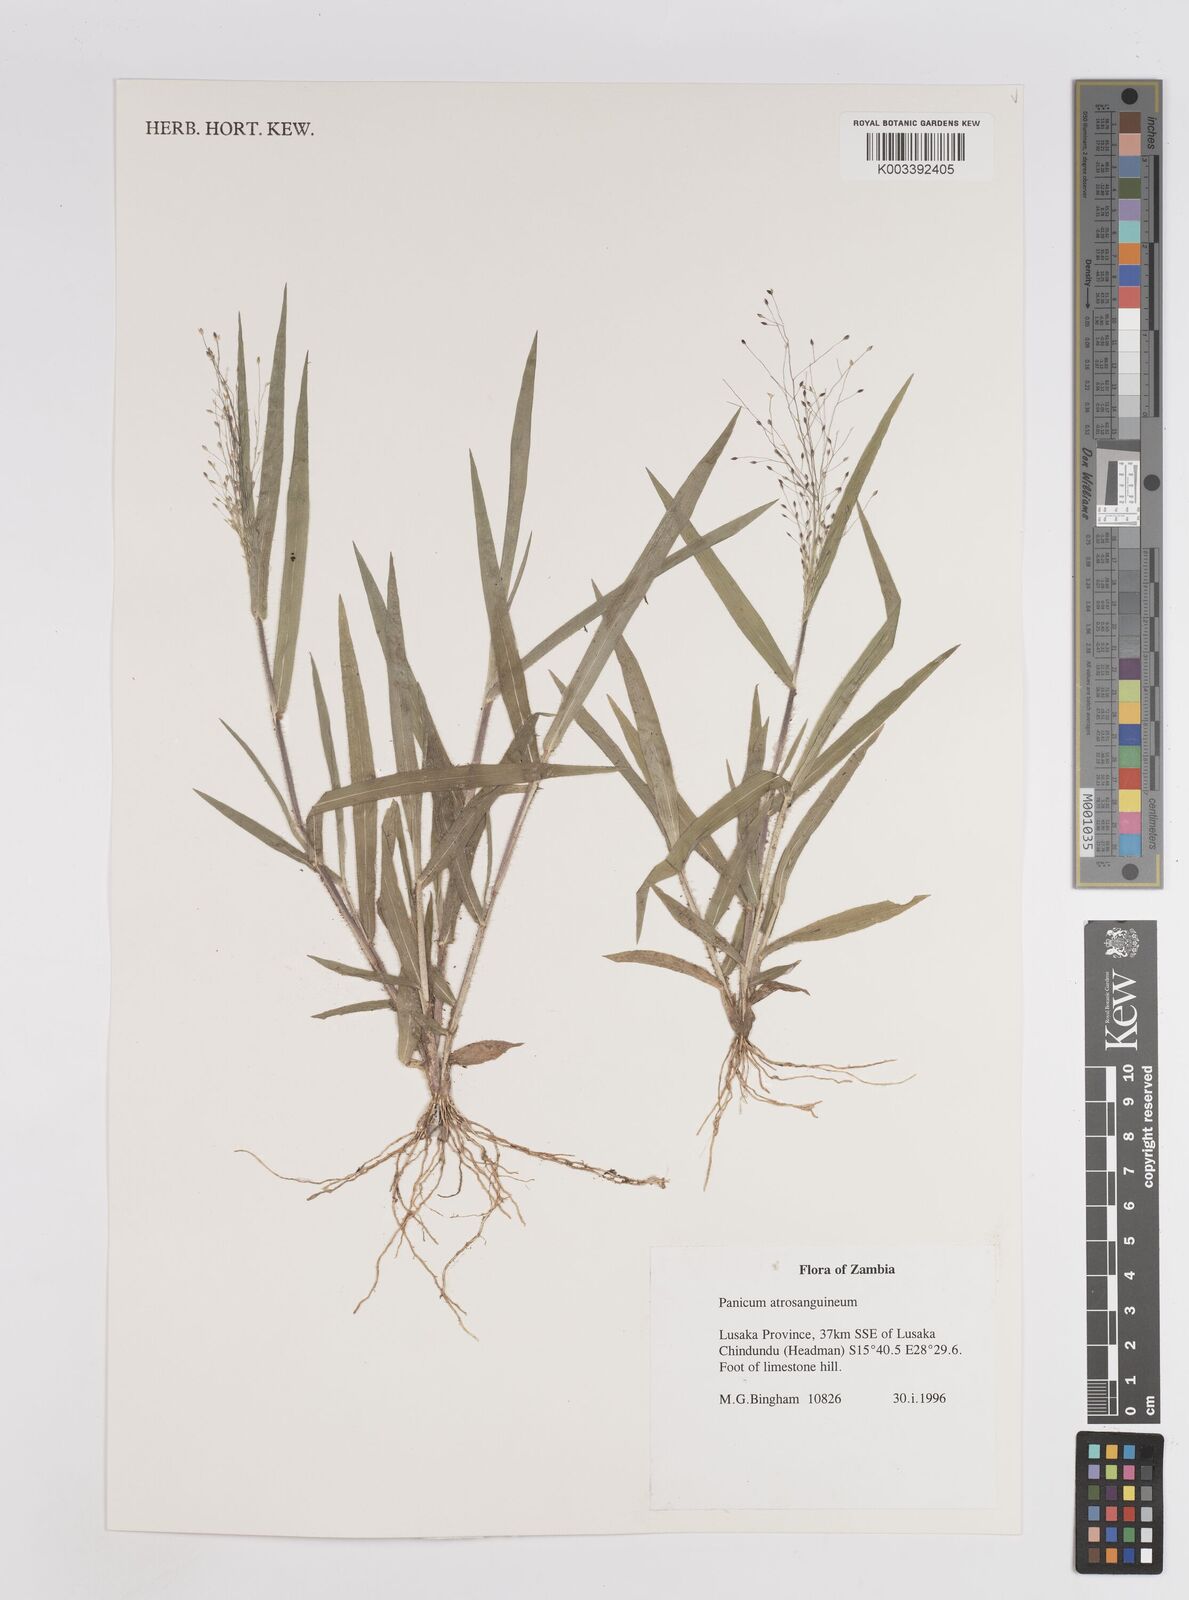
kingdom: Plantae
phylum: Tracheophyta
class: Liliopsida
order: Poales
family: Poaceae
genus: Panicum
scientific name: Panicum atrosanguineum
